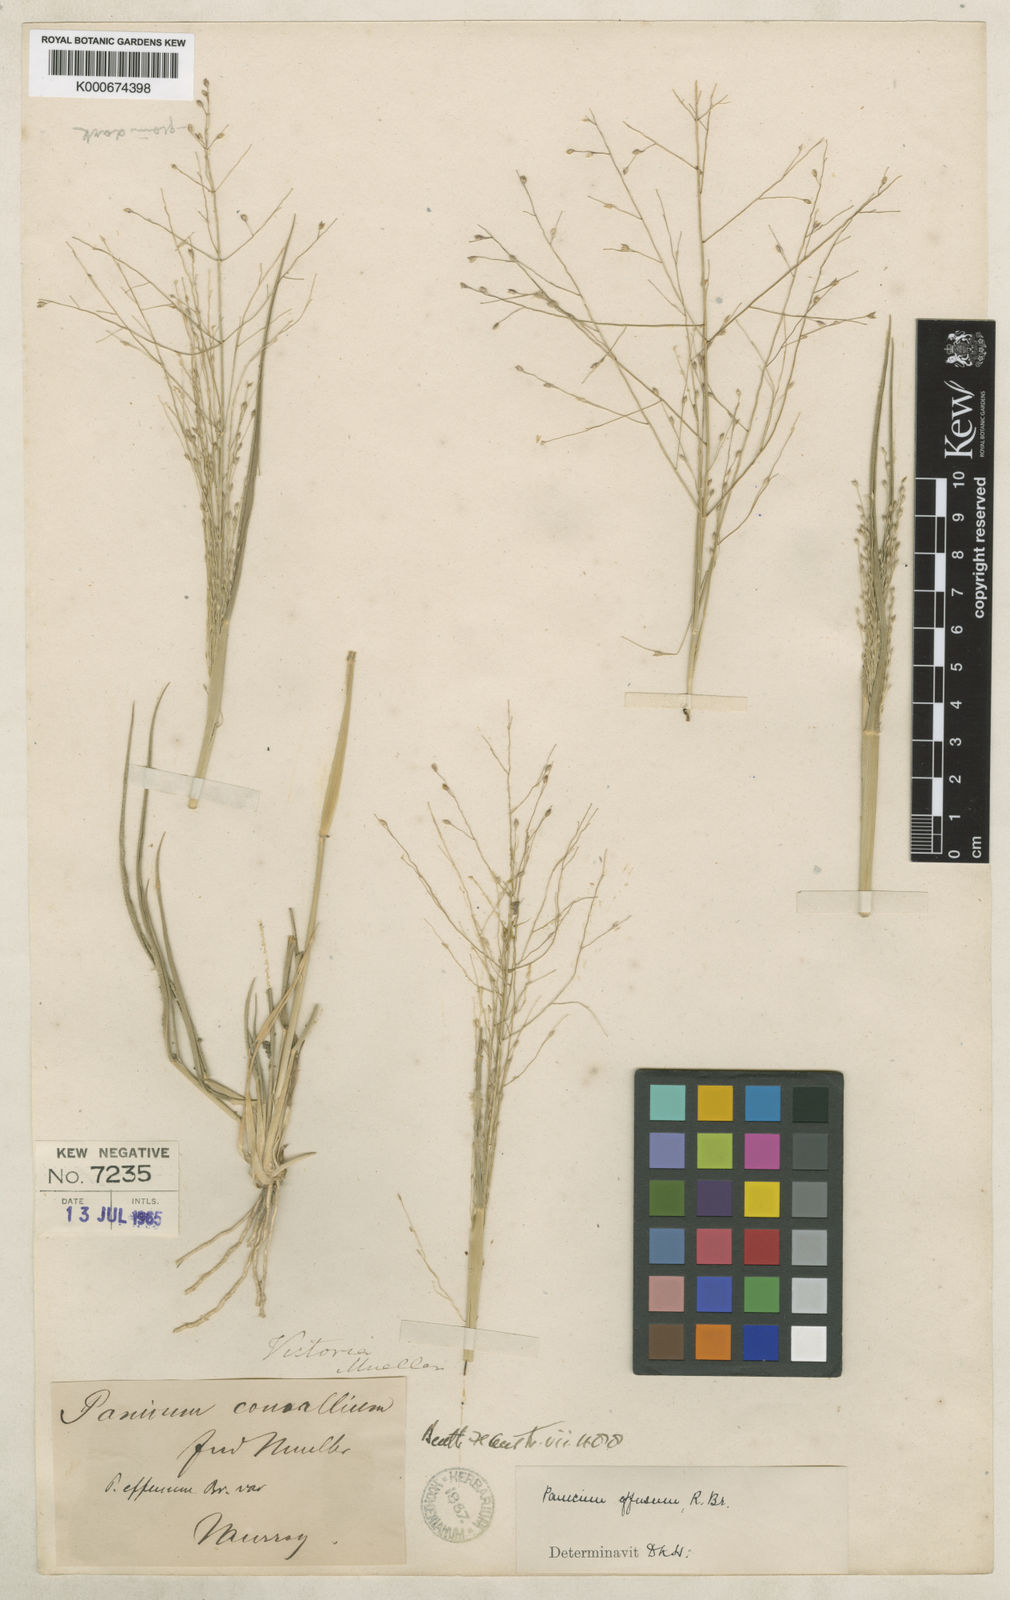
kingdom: Plantae
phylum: Tracheophyta
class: Liliopsida
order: Poales
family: Poaceae
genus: Panicum
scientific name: Panicum effusum
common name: Hairy panic grass
